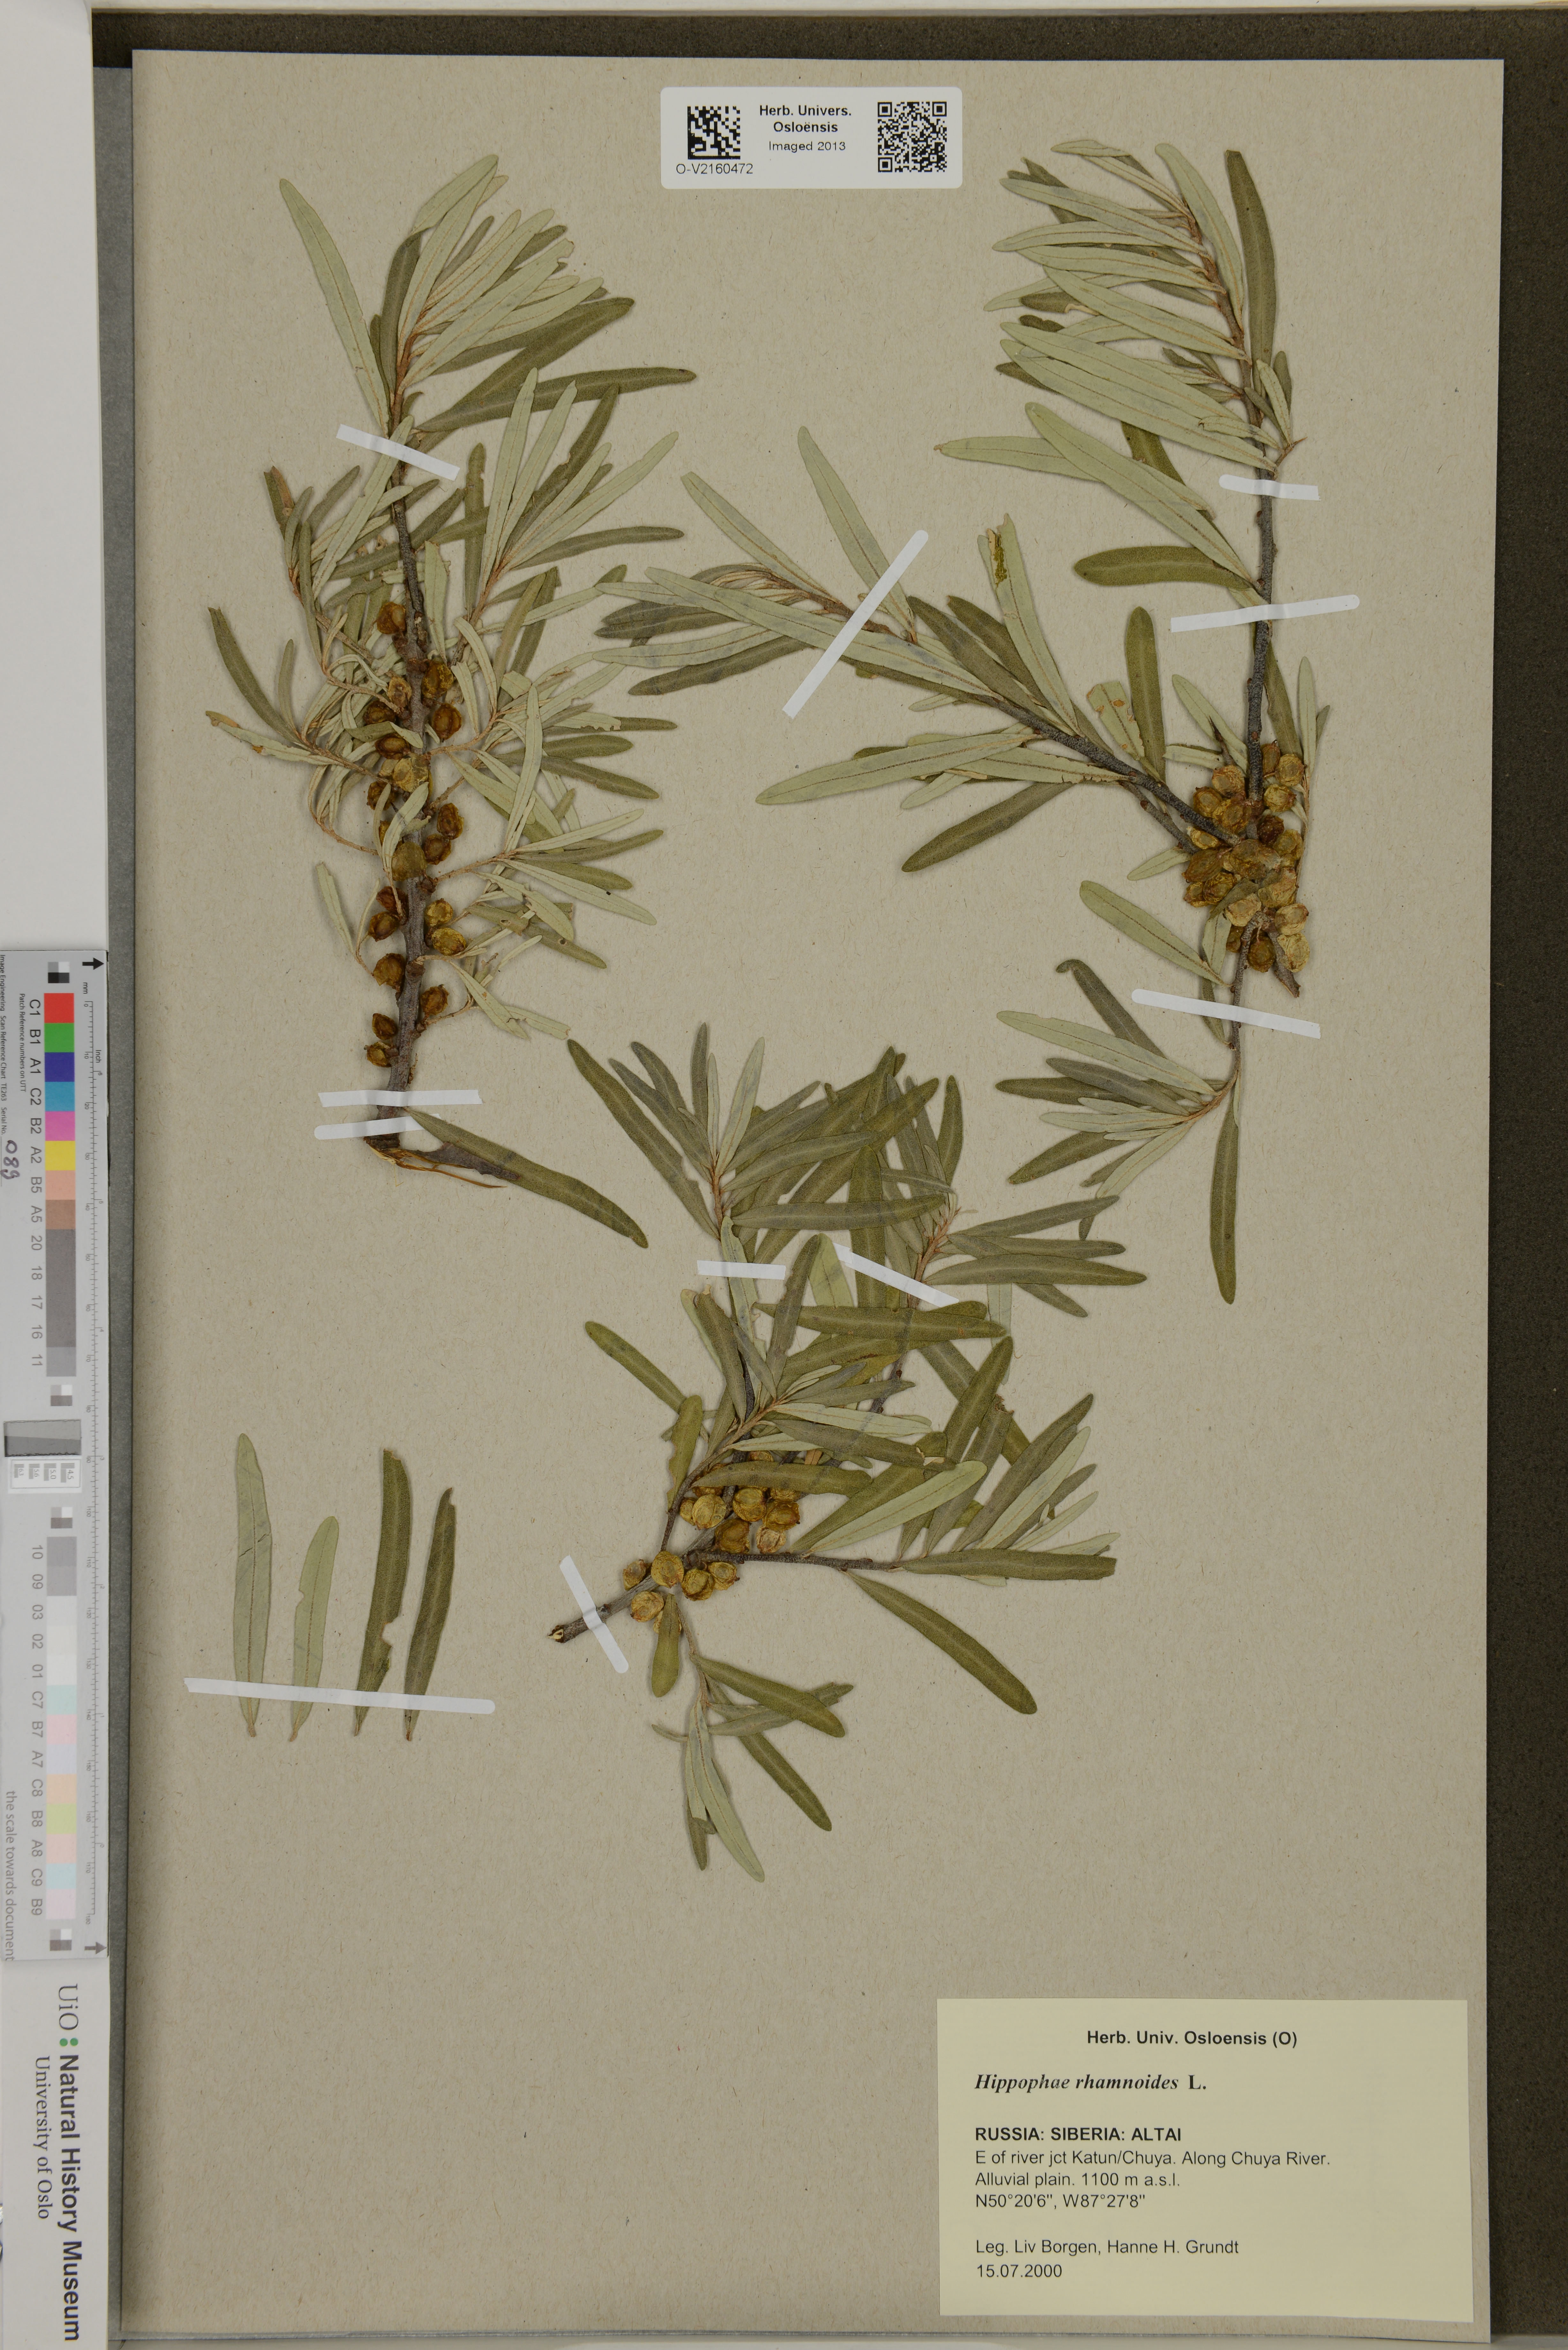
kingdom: Plantae
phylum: Tracheophyta
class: Magnoliopsida
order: Rosales
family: Elaeagnaceae
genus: Hippophae
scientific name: Hippophae rhamnoides
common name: Sea-buckthorn
